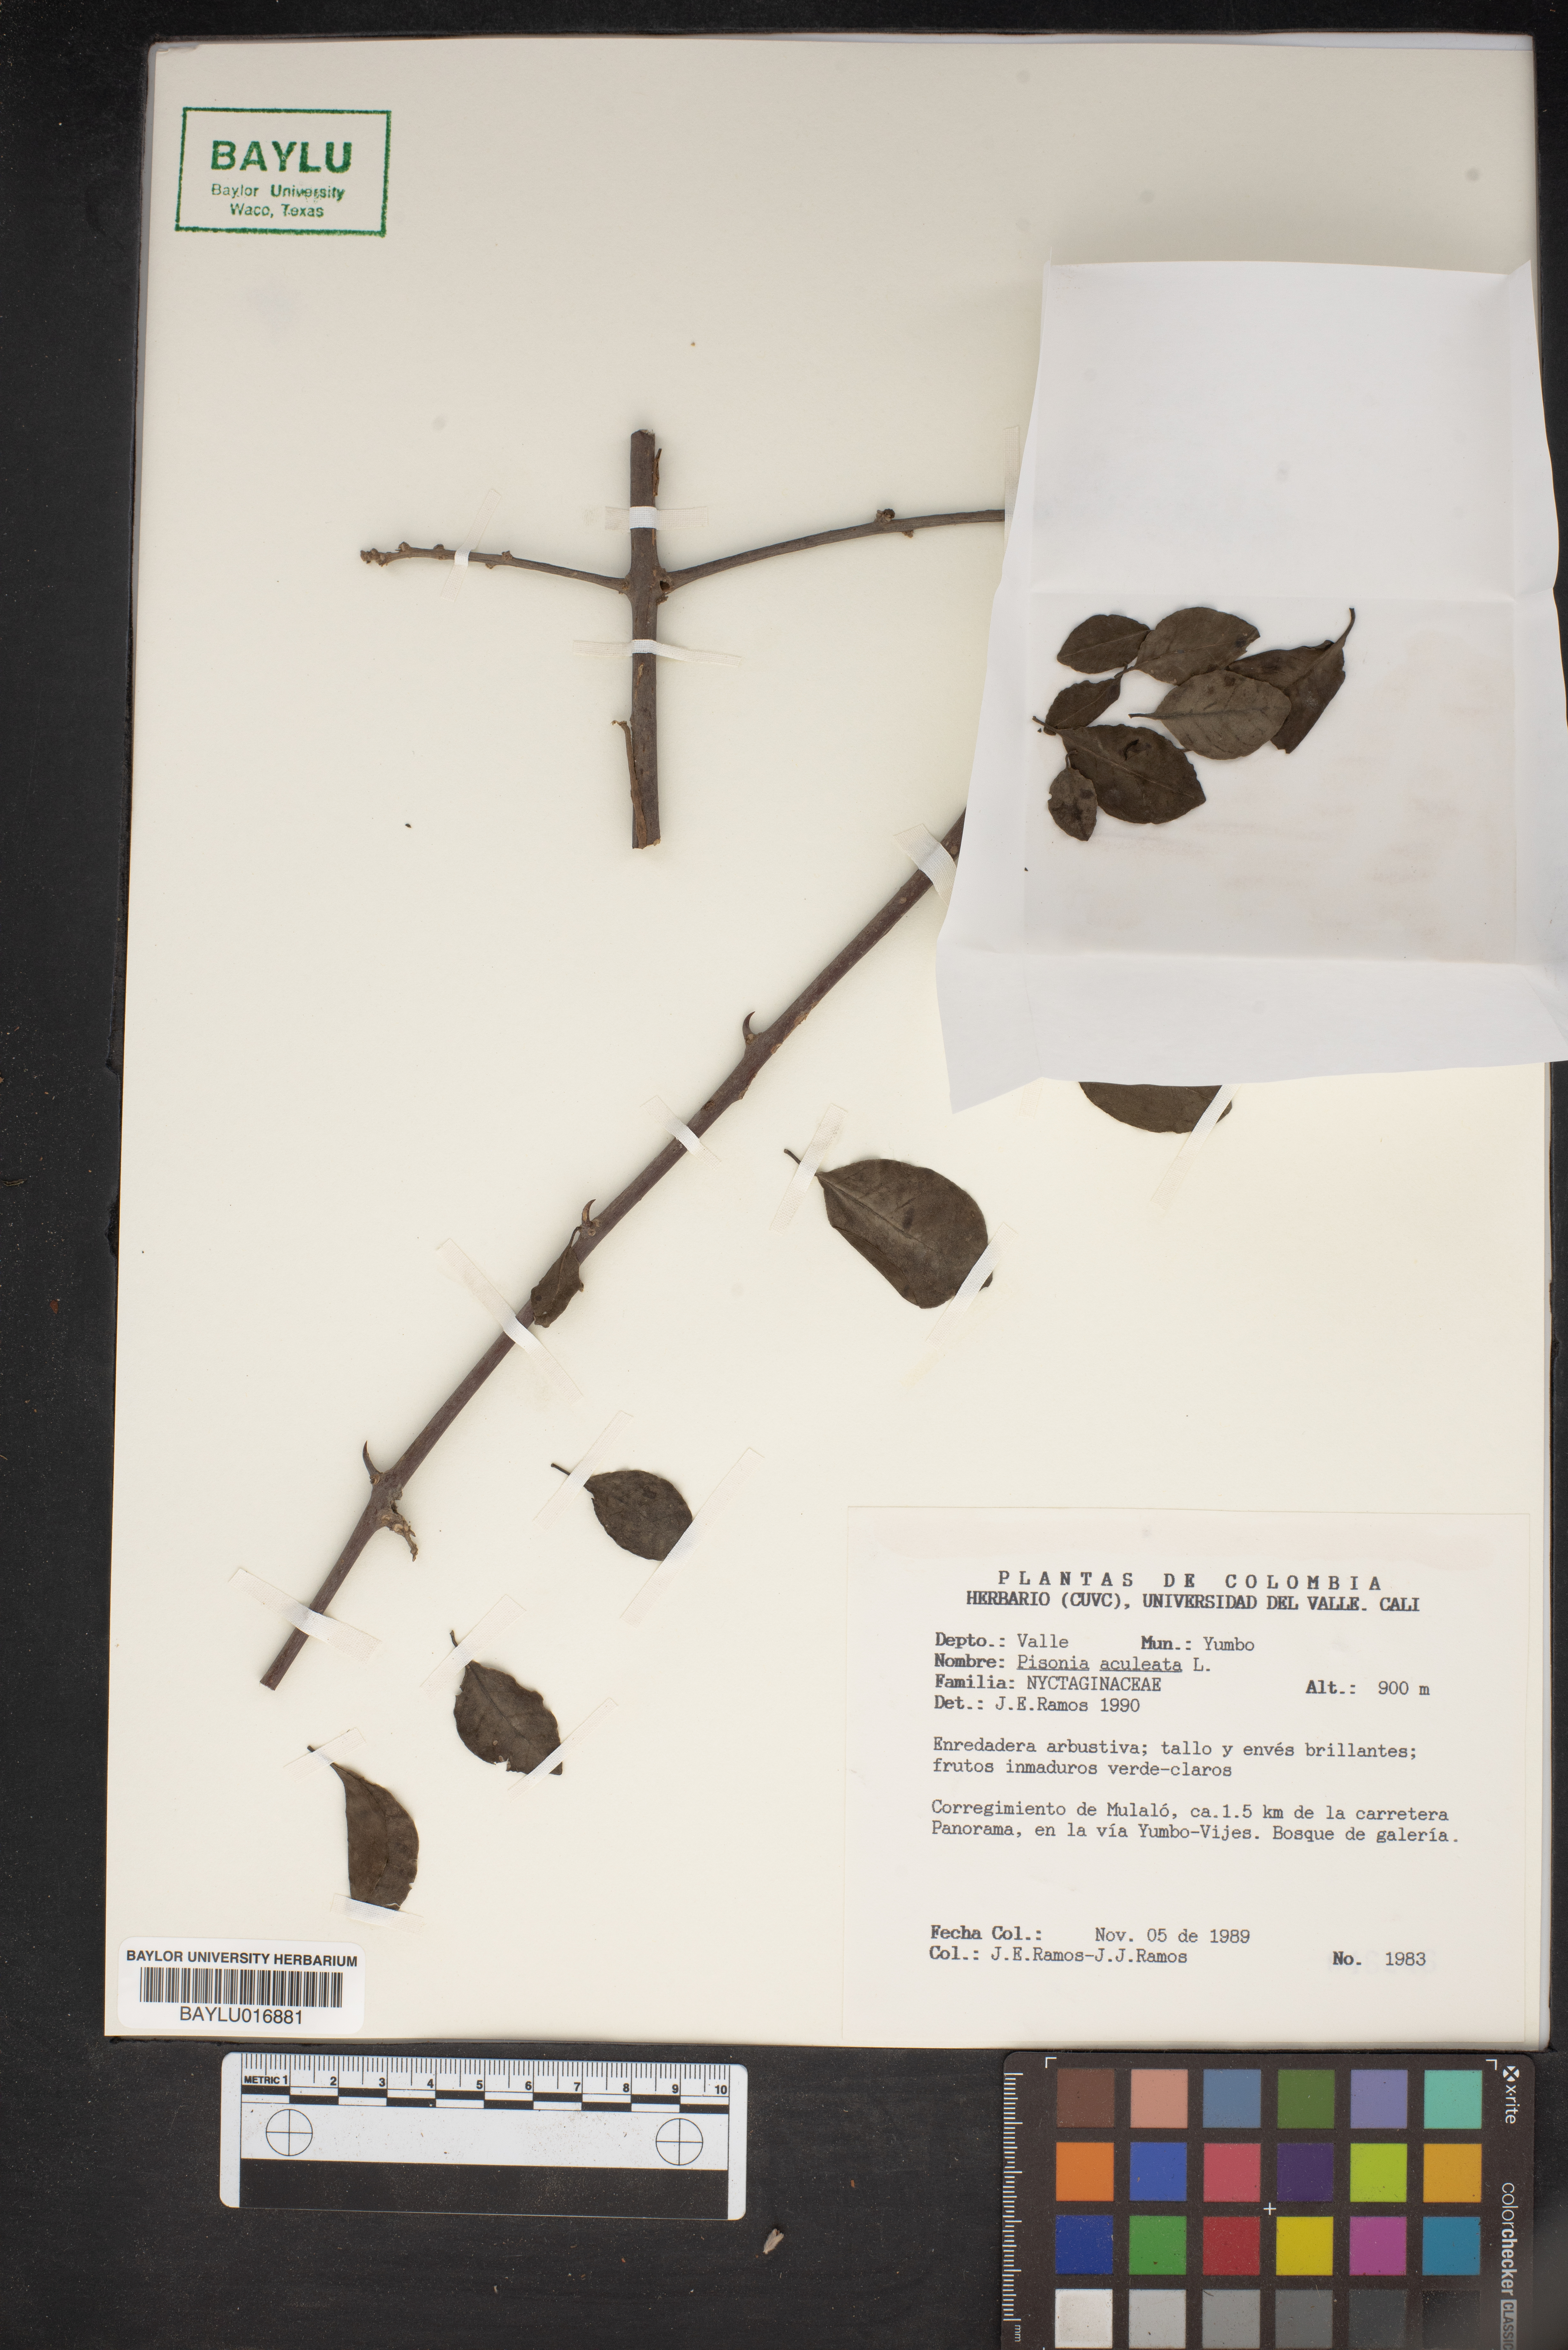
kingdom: Plantae
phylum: Tracheophyta
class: Magnoliopsida
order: Caryophyllales
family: Nyctaginaceae
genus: Pisonia
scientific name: Pisonia aculeata
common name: Cockspur vine
